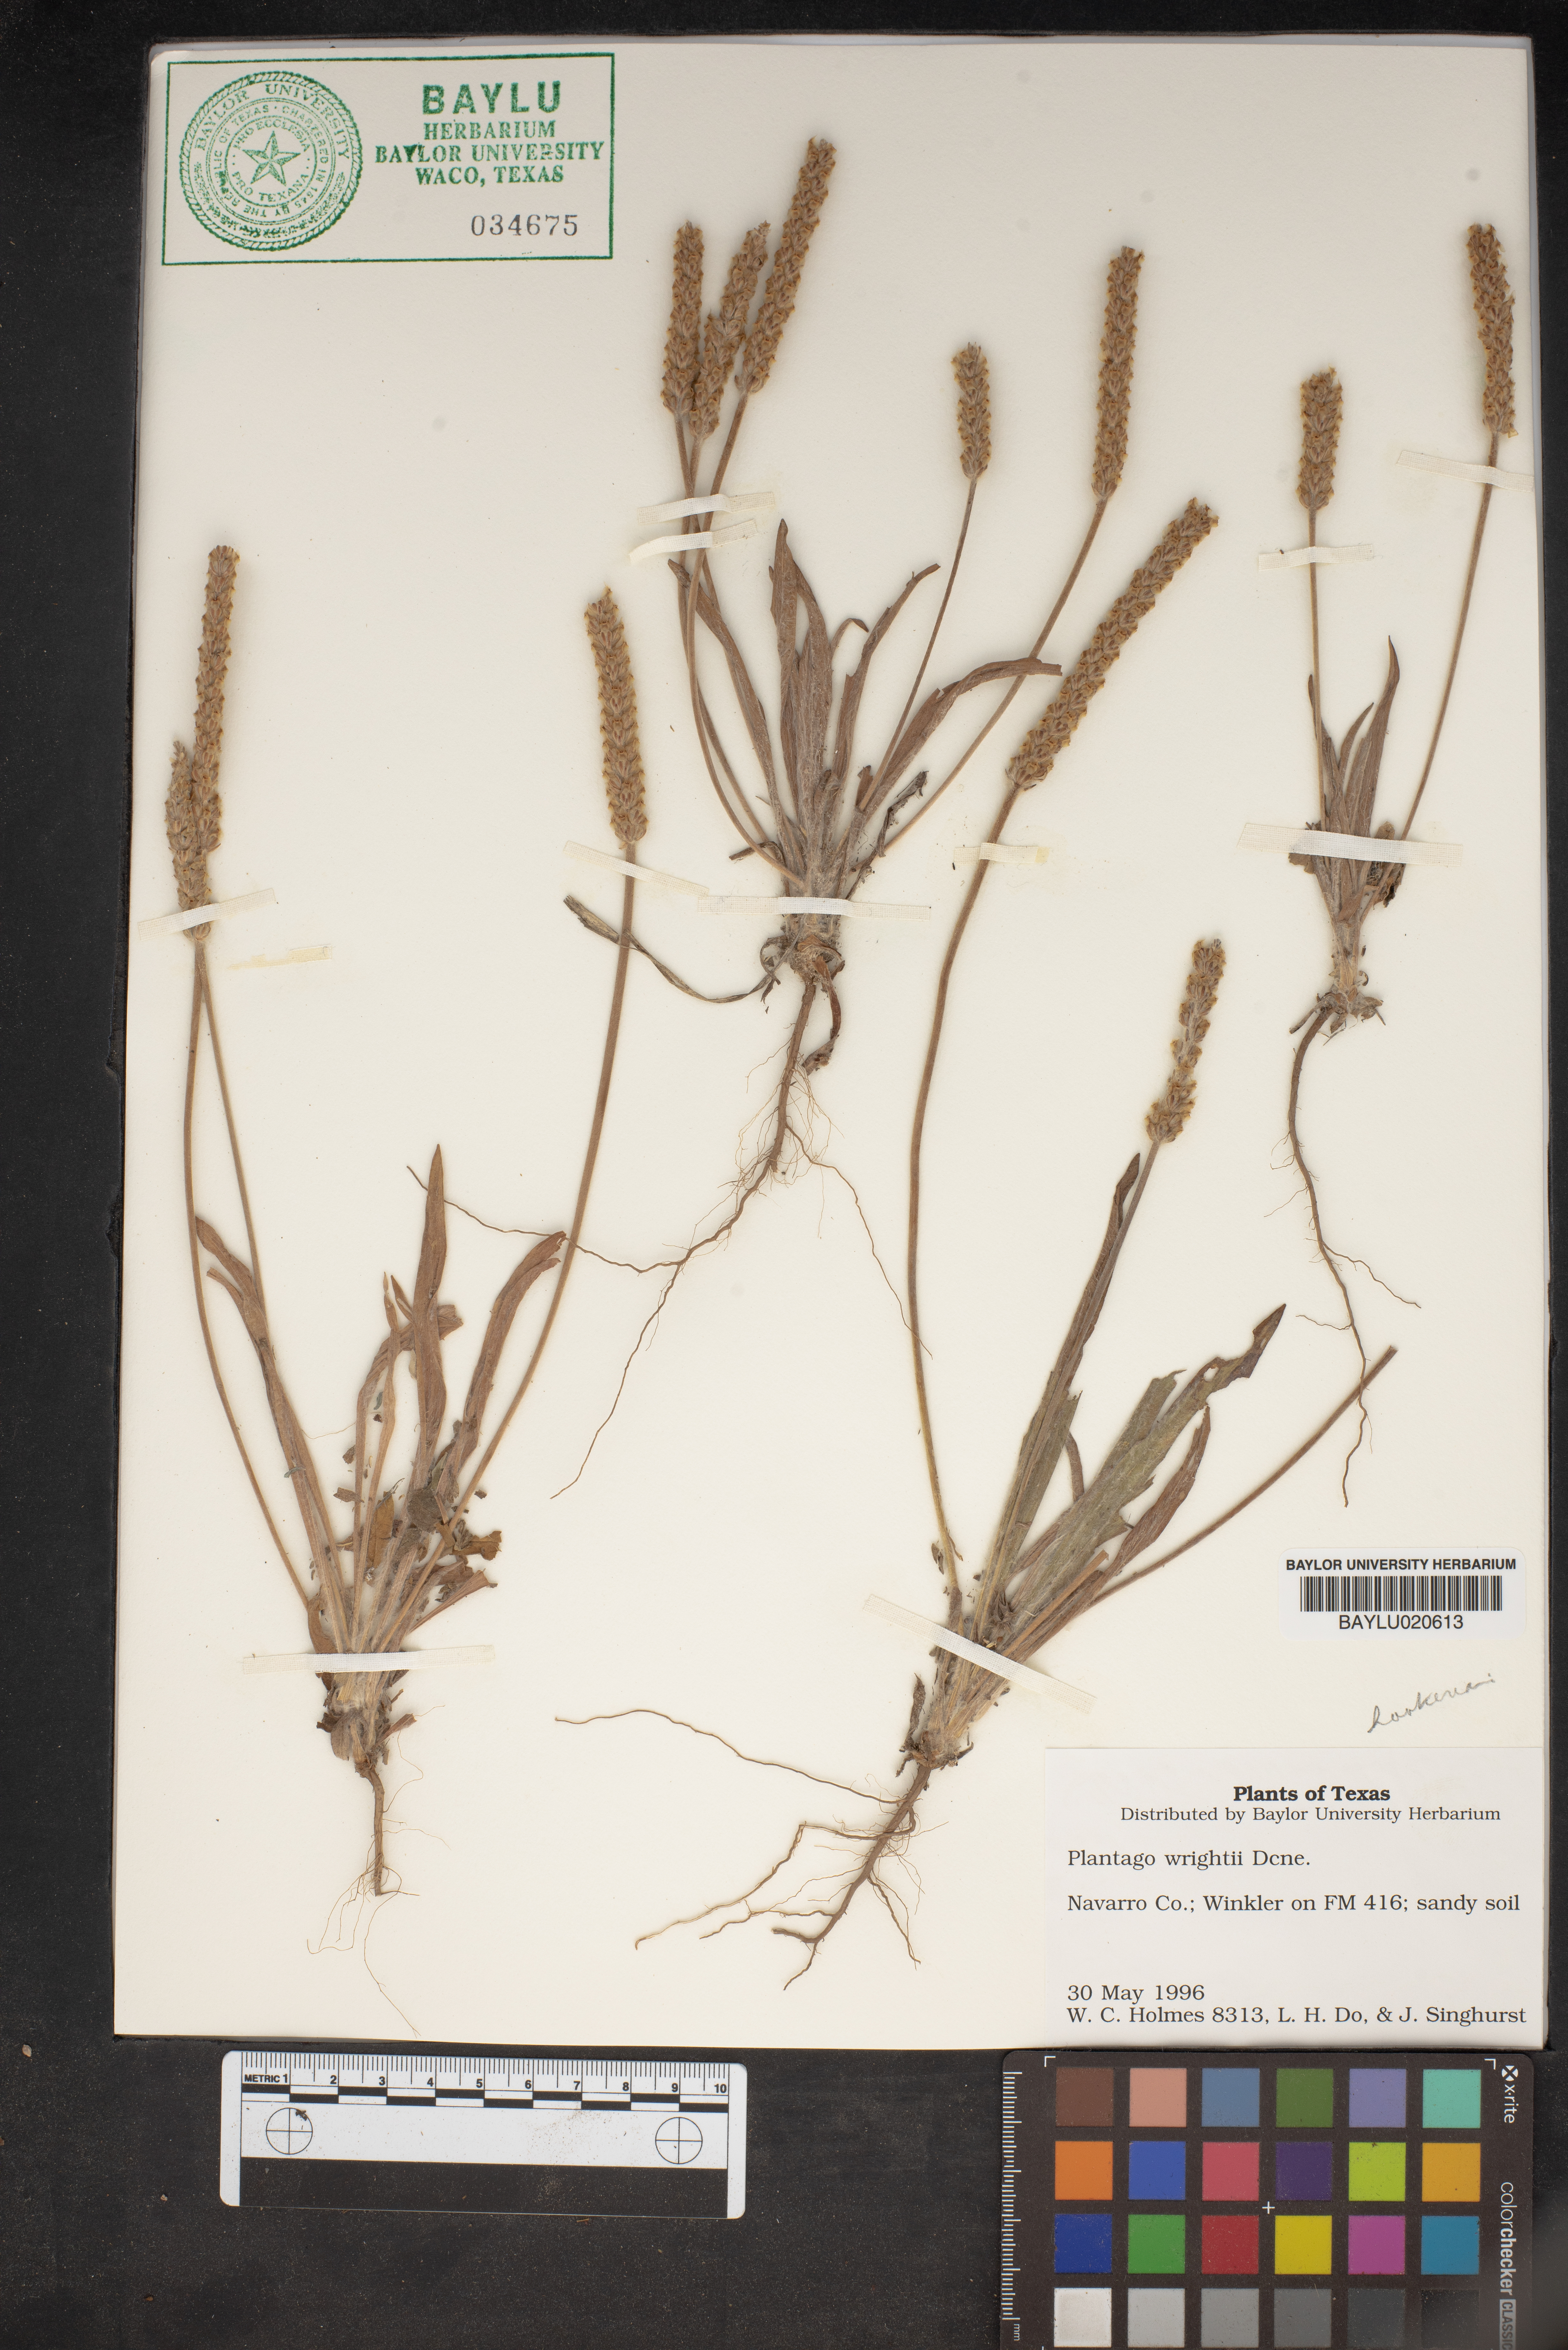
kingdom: Plantae
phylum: Tracheophyta
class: Magnoliopsida
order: Lamiales
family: Plantaginaceae
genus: Plantago
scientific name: Plantago wrightiana
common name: Wright's plantain
